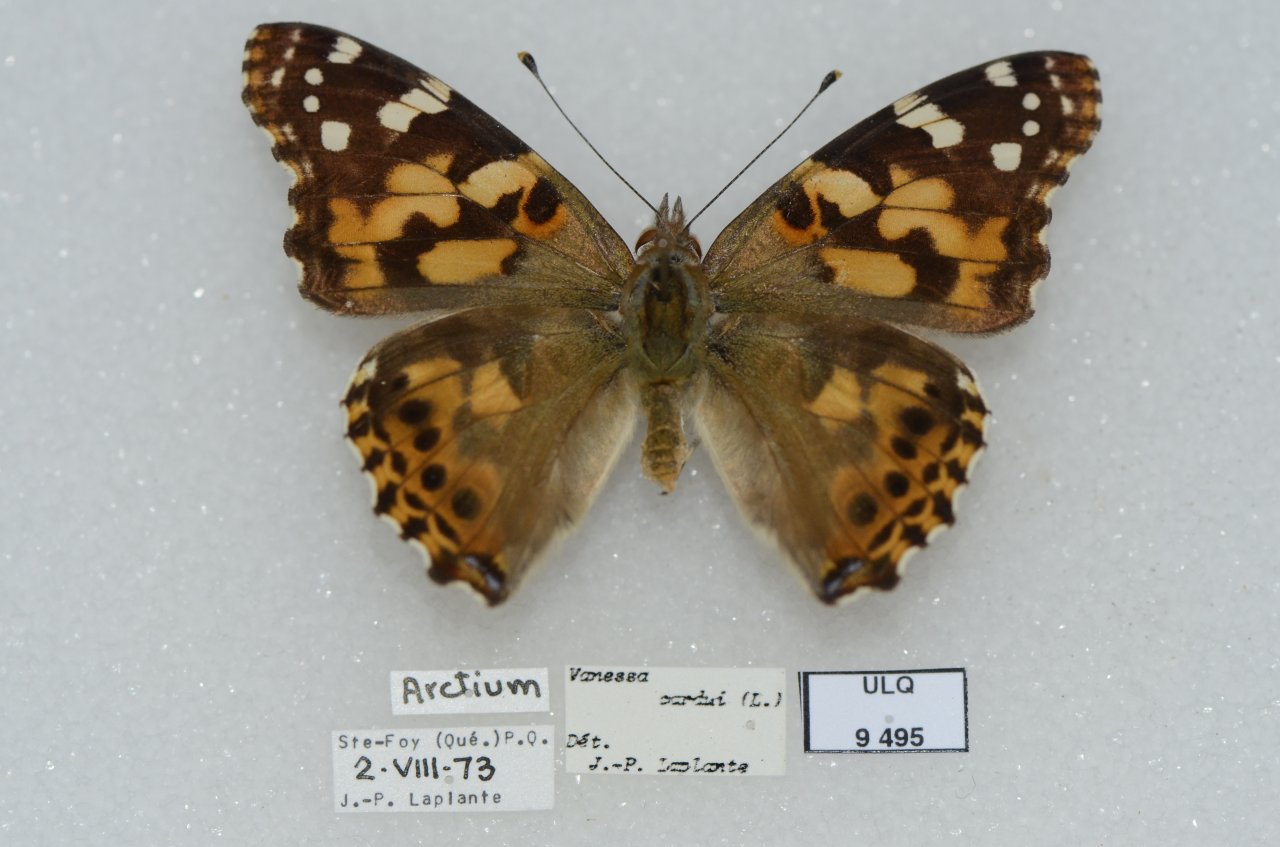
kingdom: Animalia
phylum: Arthropoda
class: Insecta
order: Lepidoptera
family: Nymphalidae
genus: Vanessa
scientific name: Vanessa cardui
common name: Painted Lady
